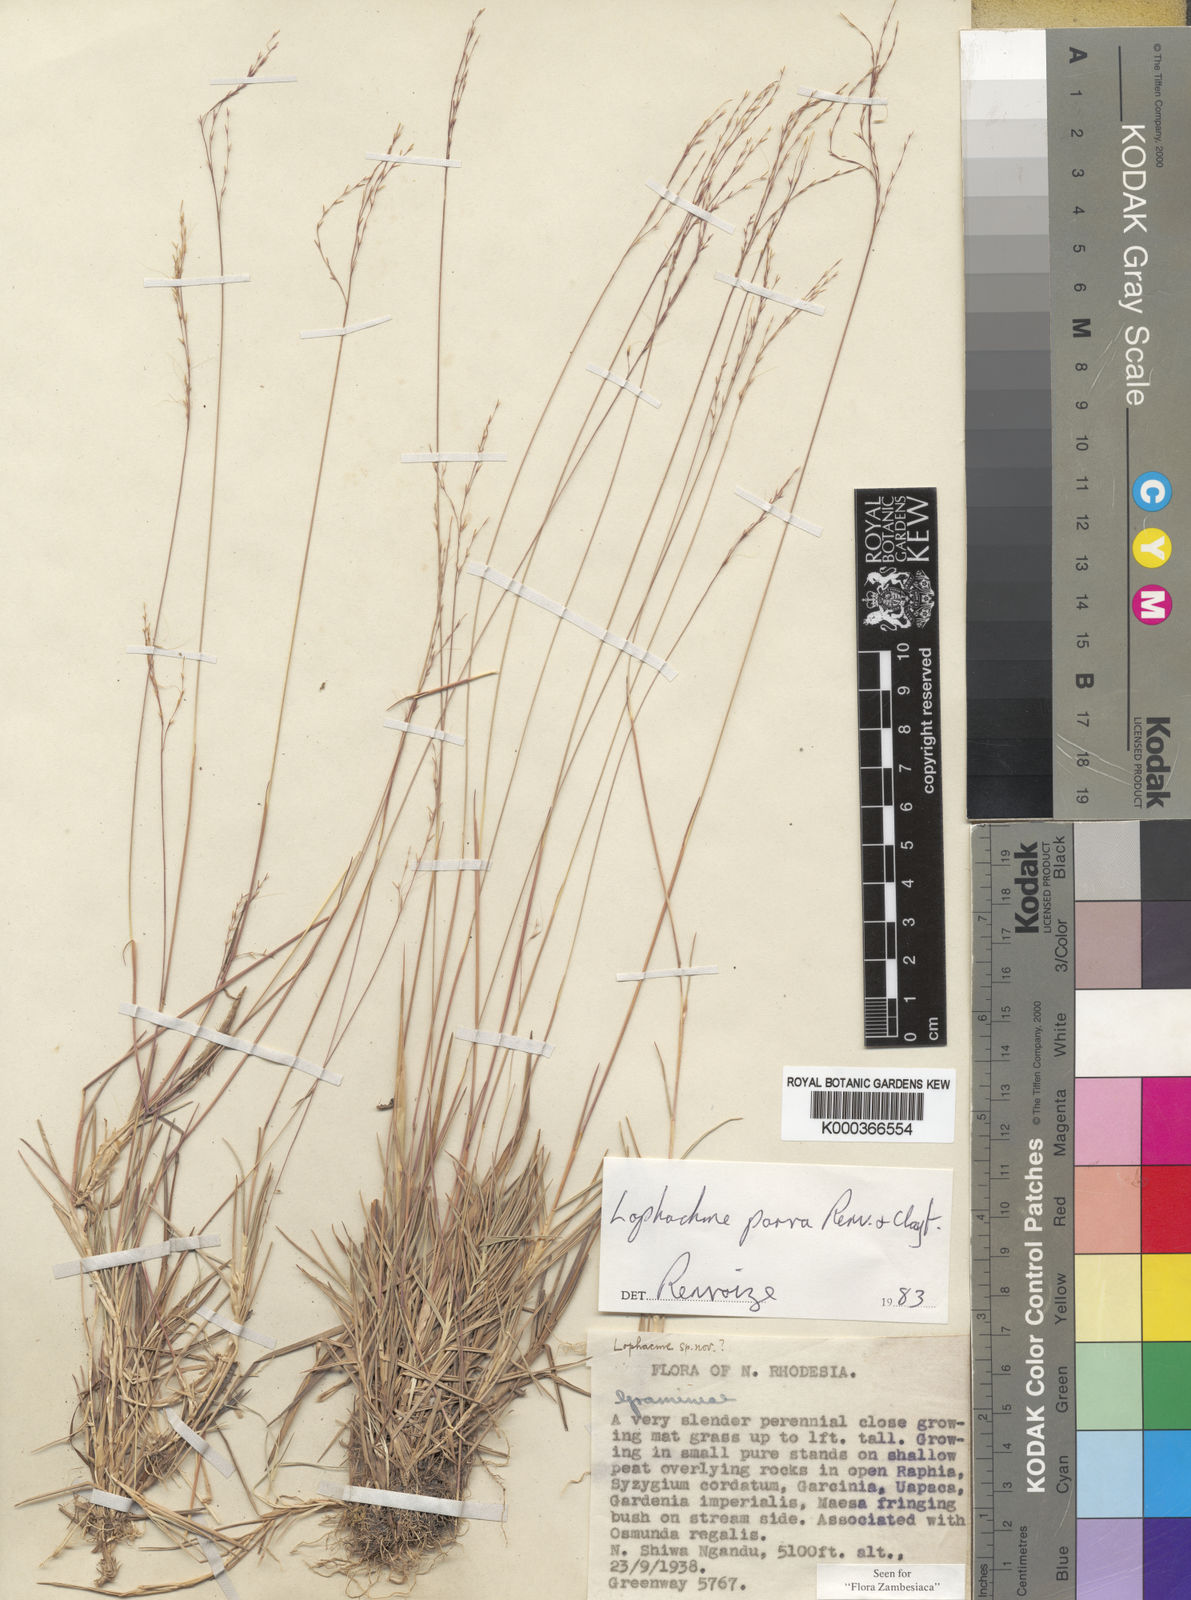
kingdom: Plantae
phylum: Tracheophyta
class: Liliopsida
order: Poales
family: Poaceae
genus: Lophacme
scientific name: Lophacme parva
